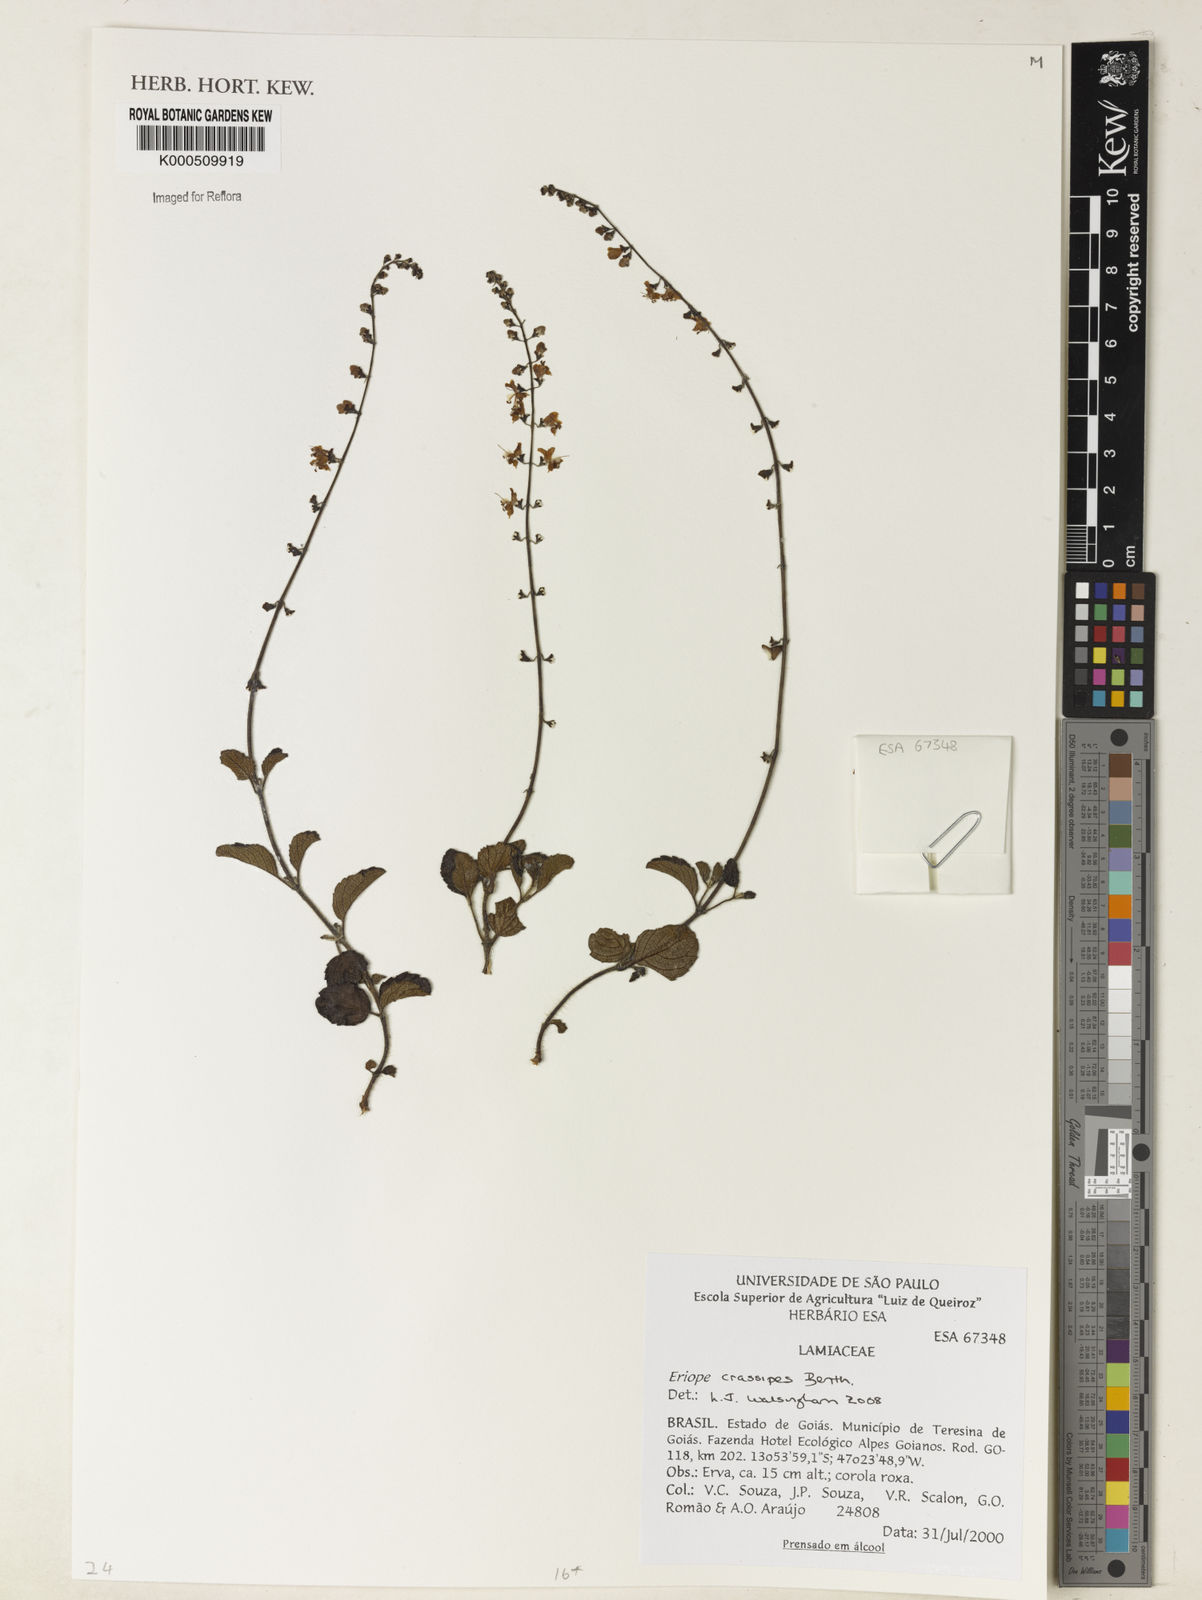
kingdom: Plantae
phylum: Tracheophyta
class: Magnoliopsida
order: Lamiales
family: Lamiaceae
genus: Eriope
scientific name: Eriope crassipes
